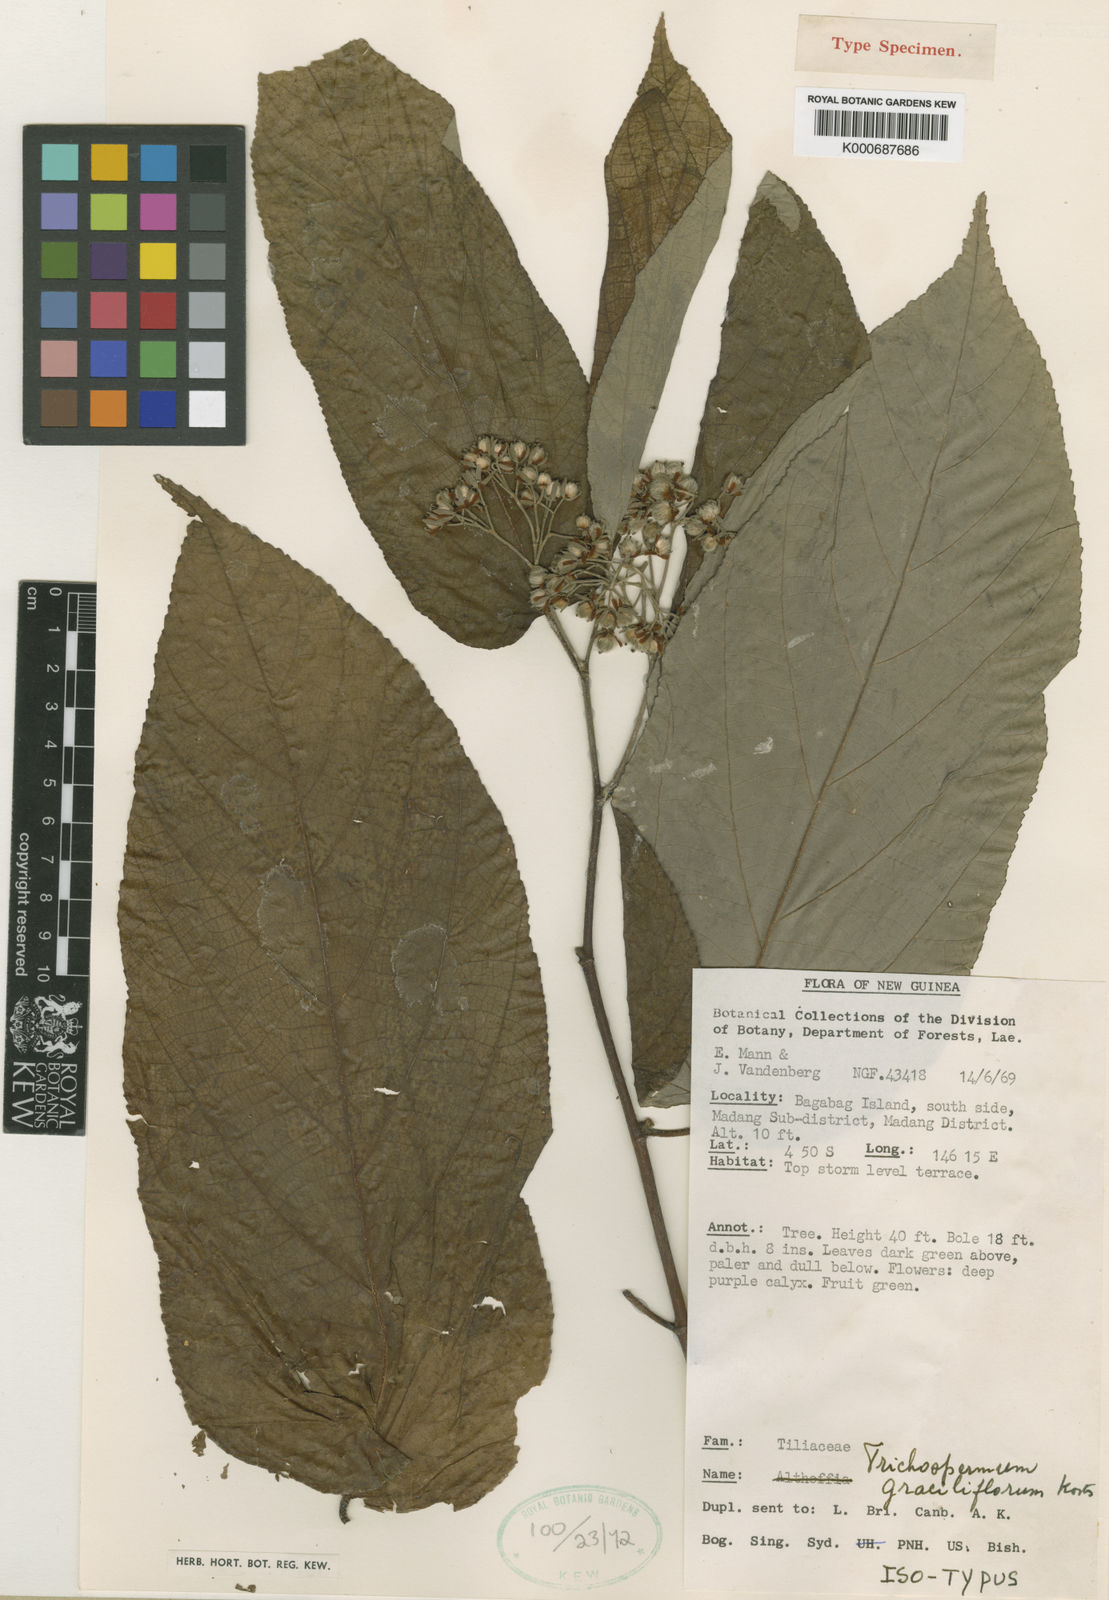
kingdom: Plantae
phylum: Tracheophyta
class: Magnoliopsida
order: Malvales
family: Malvaceae
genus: Trichospermum
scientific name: Trichospermum graciliflorum
